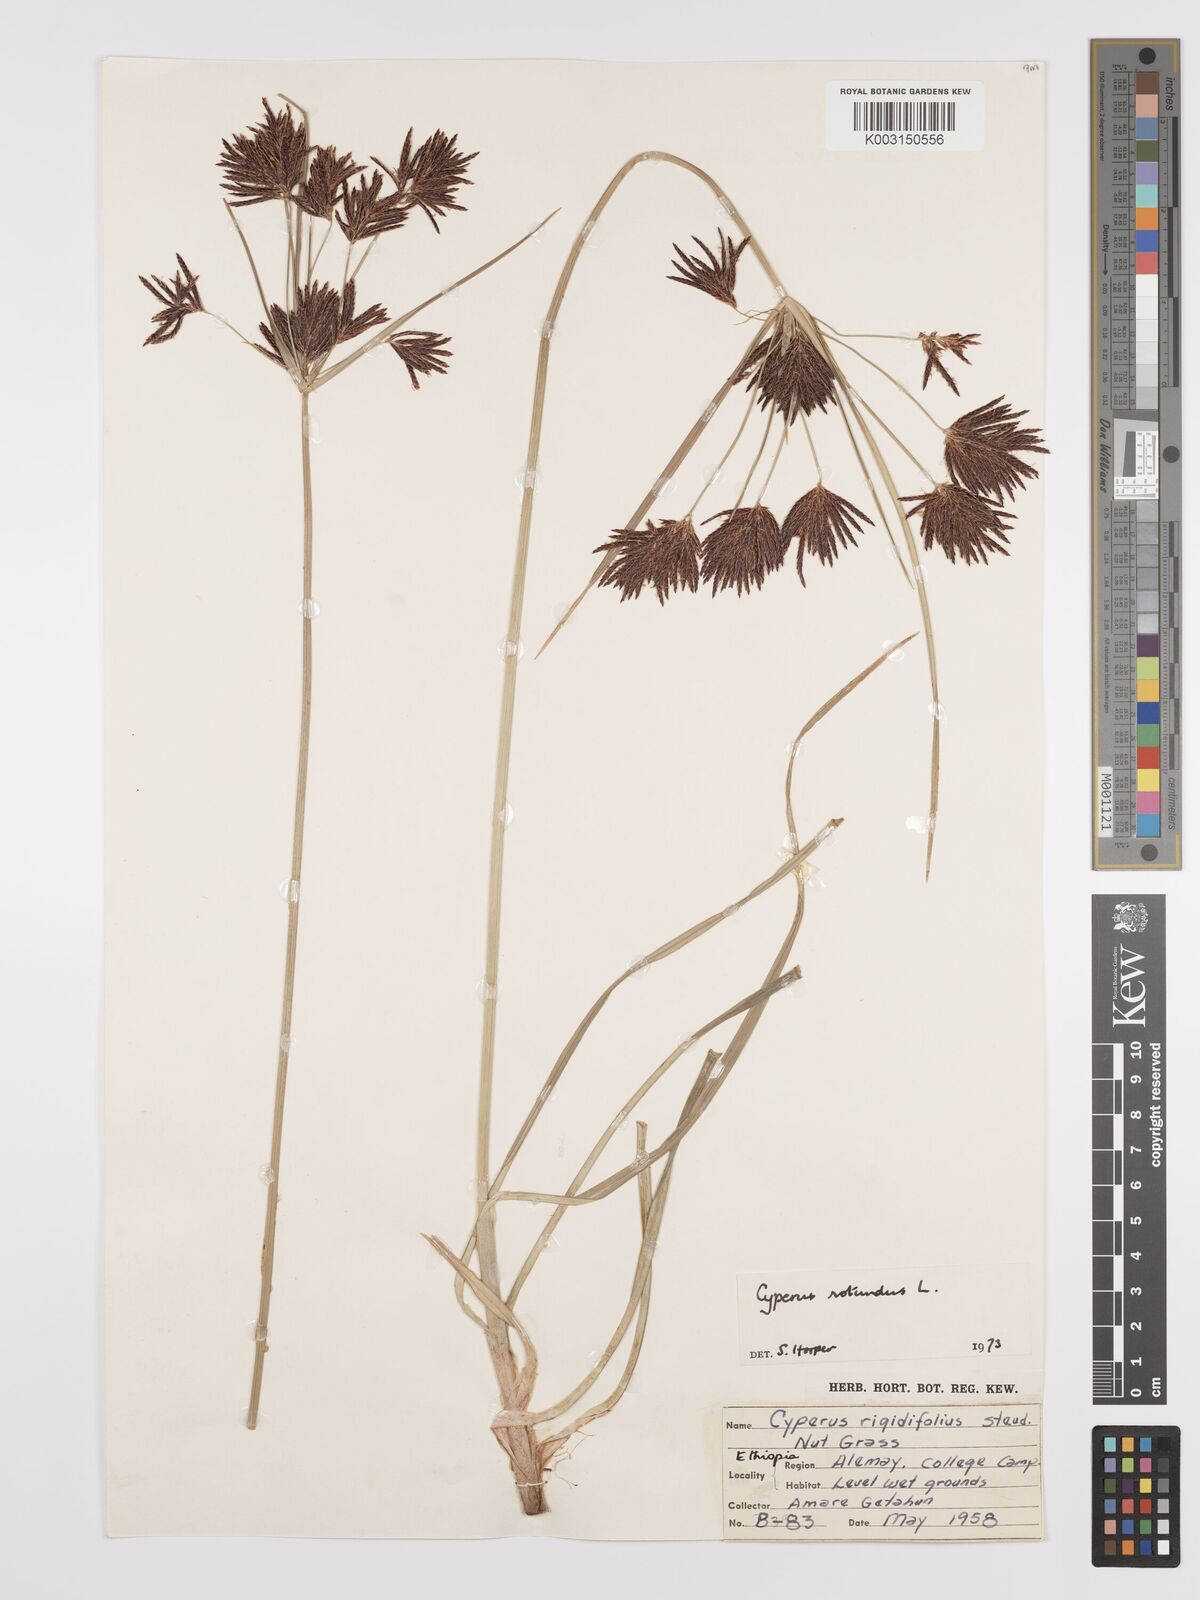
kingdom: Plantae
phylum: Tracheophyta
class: Liliopsida
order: Poales
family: Cyperaceae
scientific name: Cyperaceae
